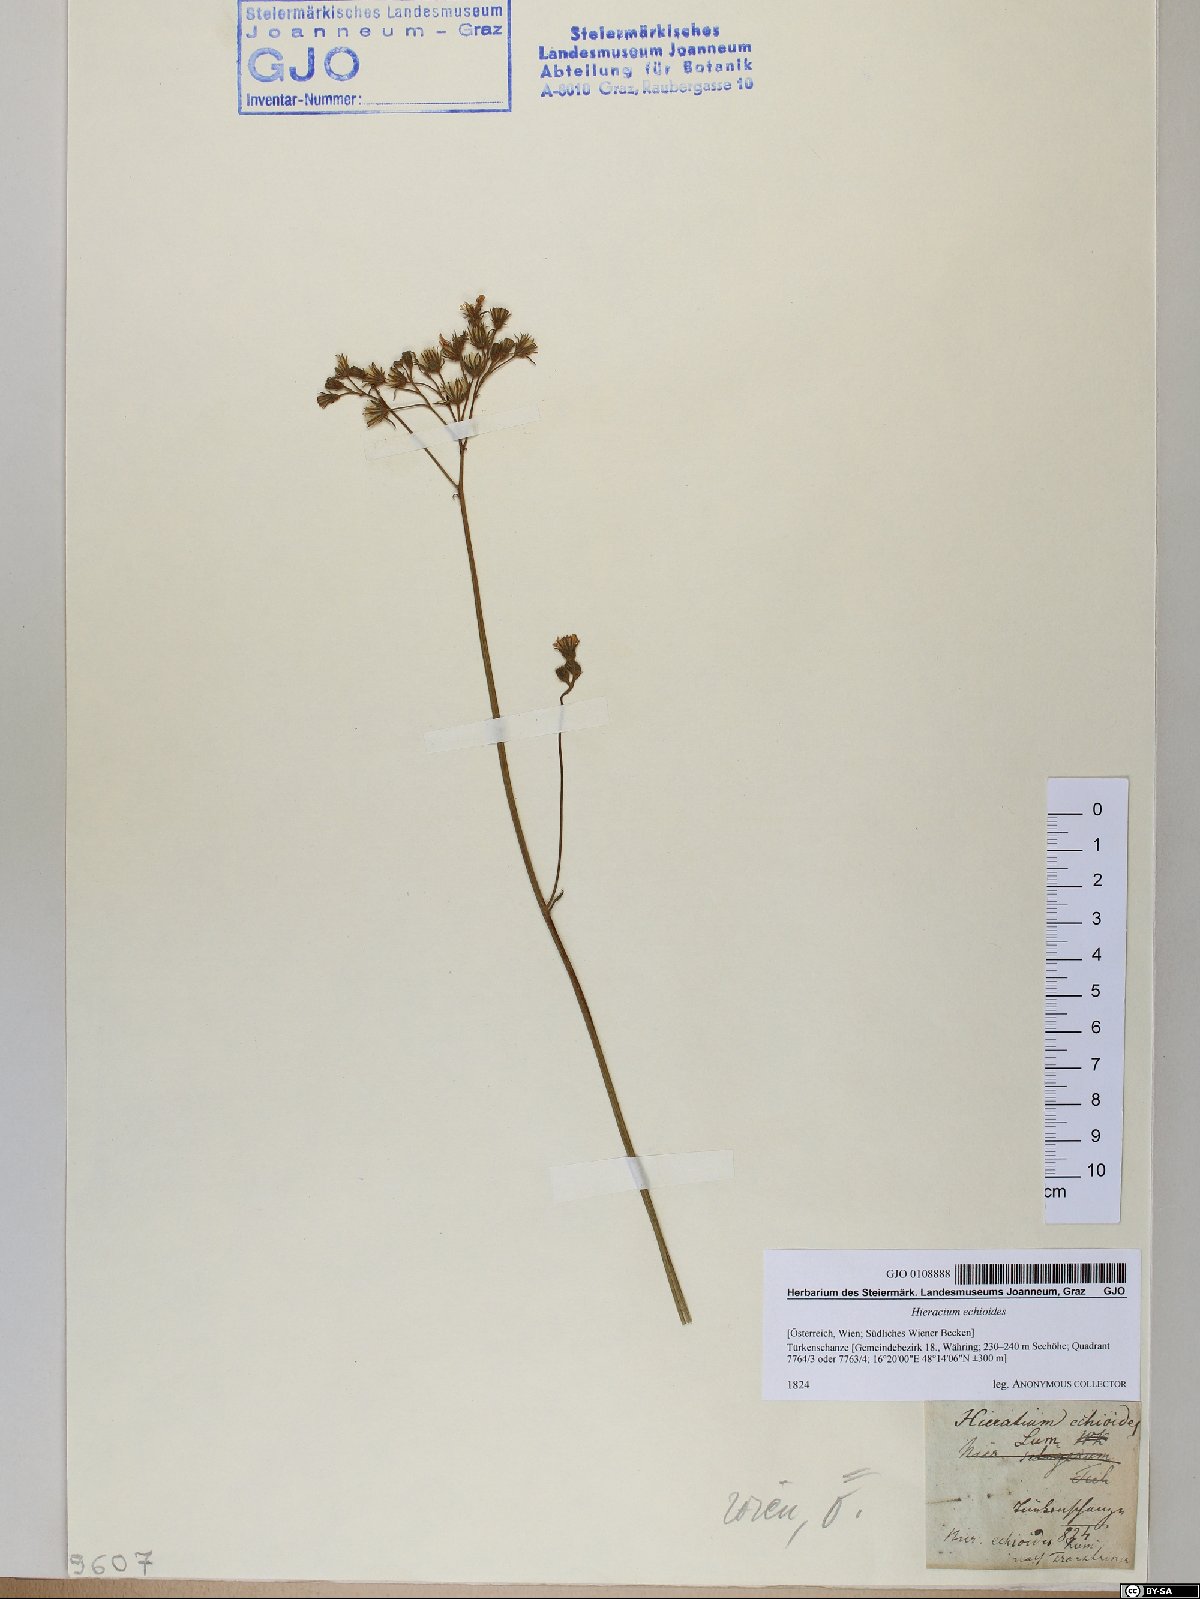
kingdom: Plantae
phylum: Tracheophyta
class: Magnoliopsida
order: Asterales
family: Asteraceae
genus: Pilosella
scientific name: Pilosella echioides
